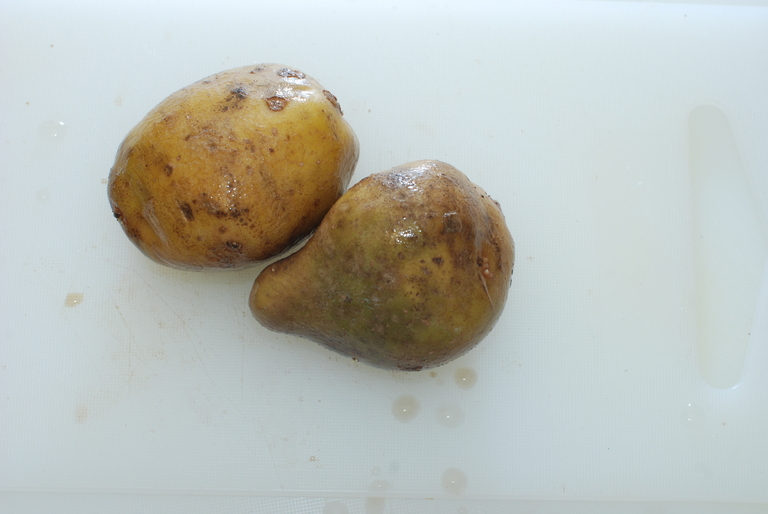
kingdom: Plantae
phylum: Tracheophyta
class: Magnoliopsida
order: Solanales
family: Solanaceae
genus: Solanum
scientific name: Solanum tuberosum
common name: Potato
